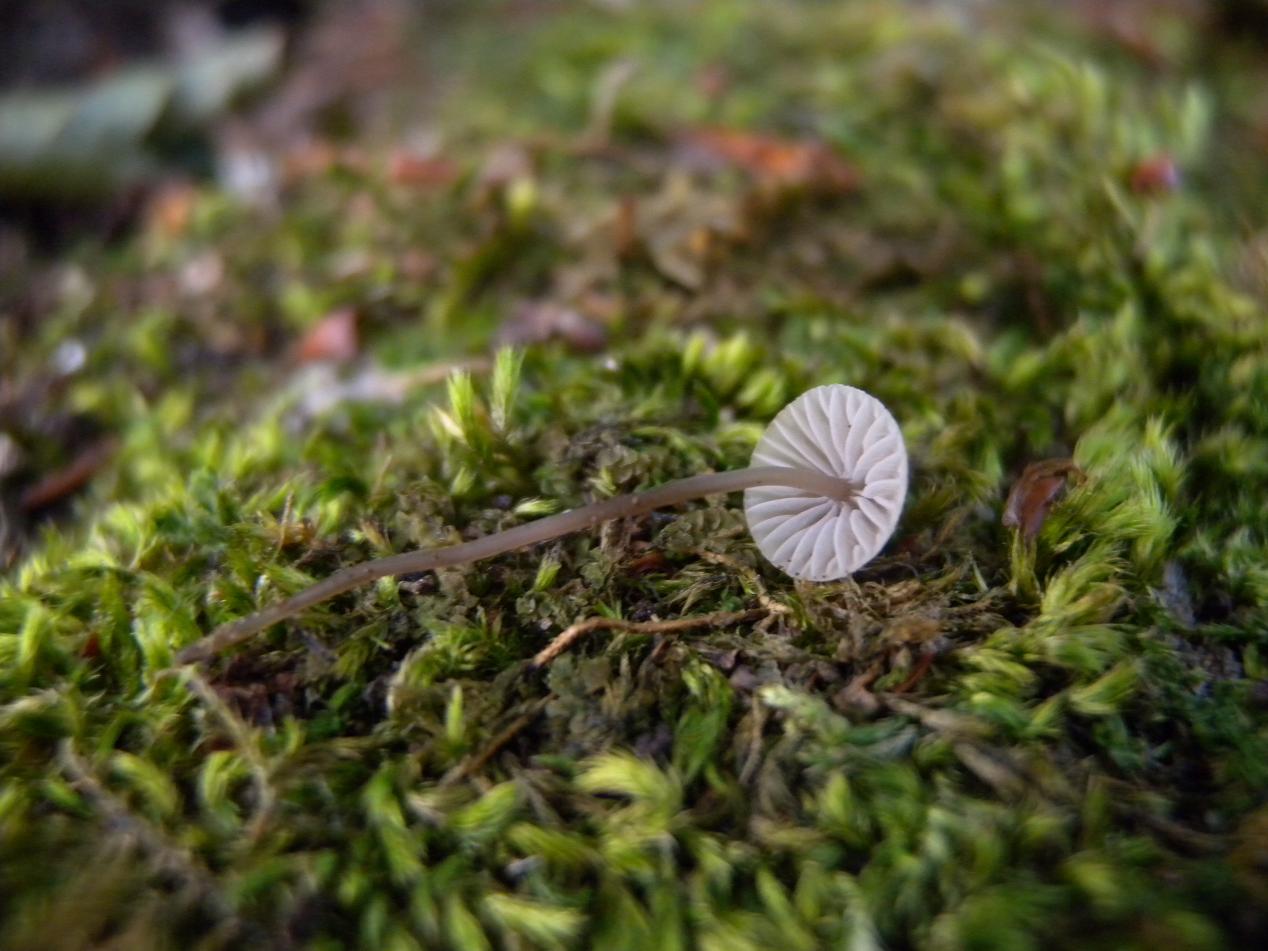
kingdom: Fungi
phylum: Basidiomycota
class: Agaricomycetes
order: Agaricales
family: Mycenaceae
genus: Mycena
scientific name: Mycena erubescens
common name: galde-huesvamp
